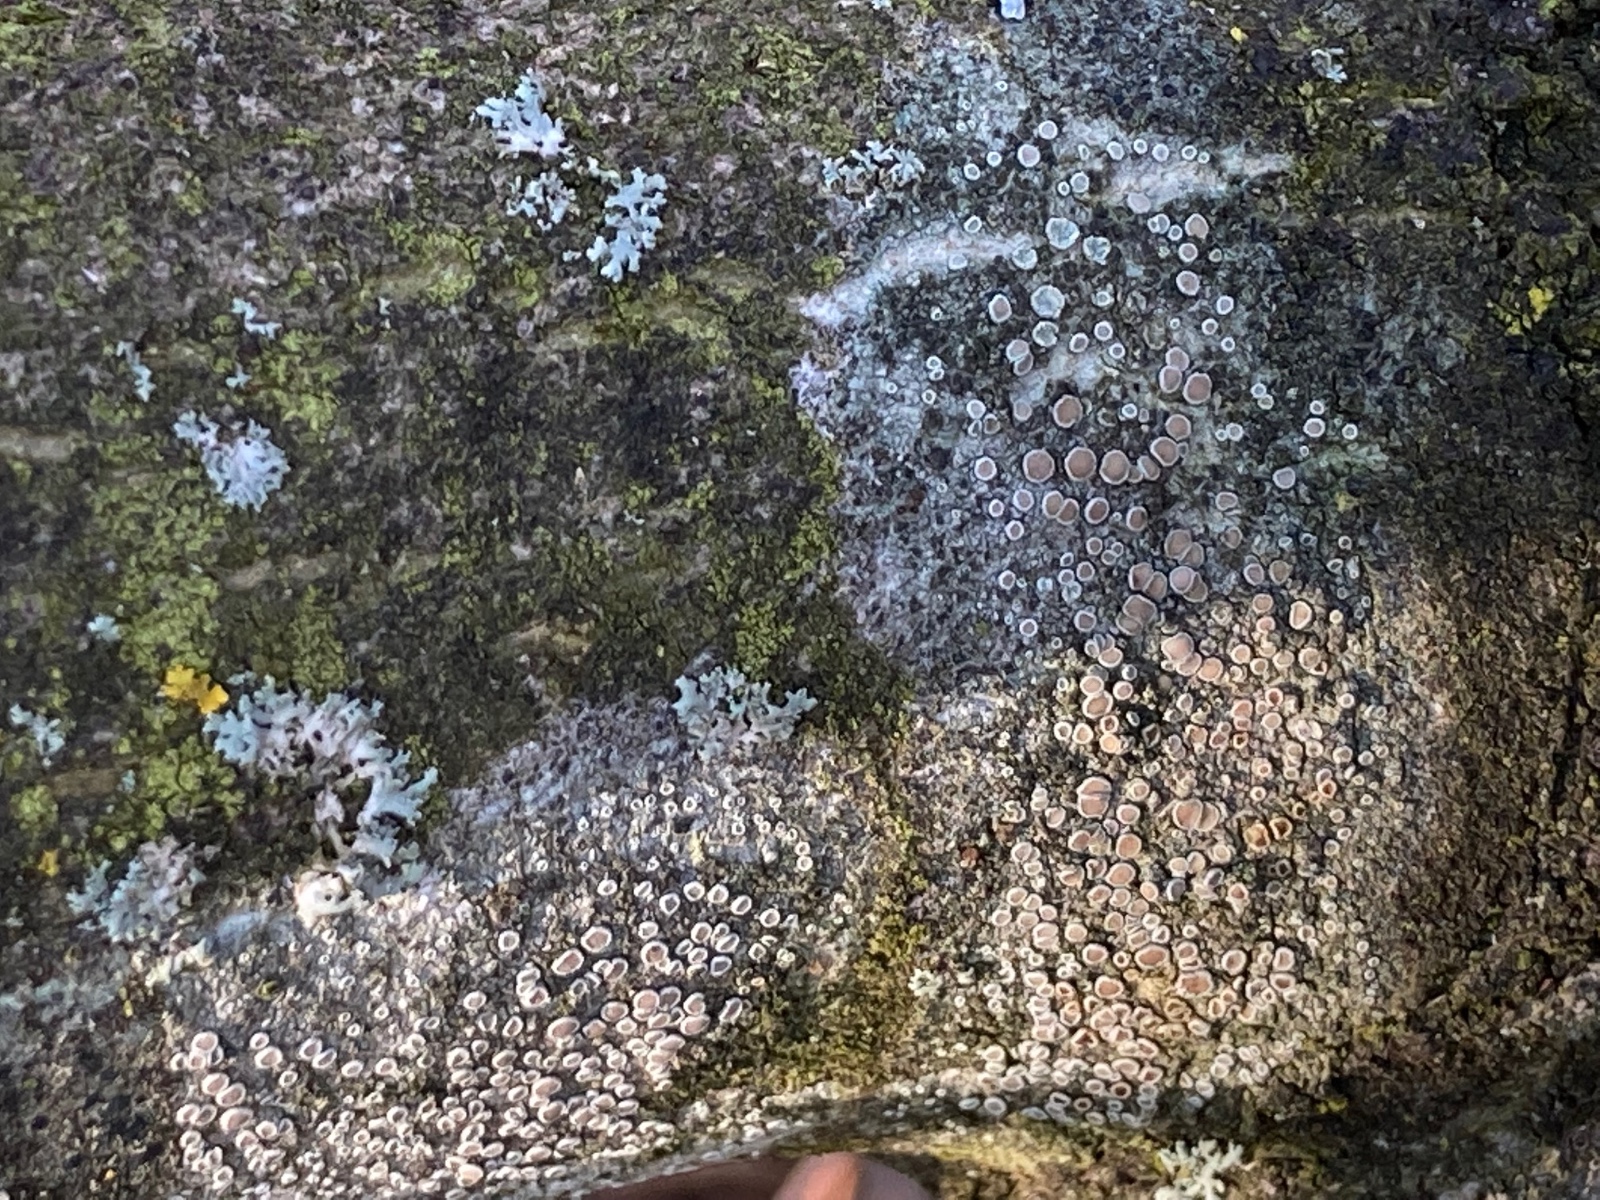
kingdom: Fungi
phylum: Ascomycota
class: Lecanoromycetes
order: Lecanorales
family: Lecanoraceae
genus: Lecanora
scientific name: Lecanora chlarotera
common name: brun kantskivelav
